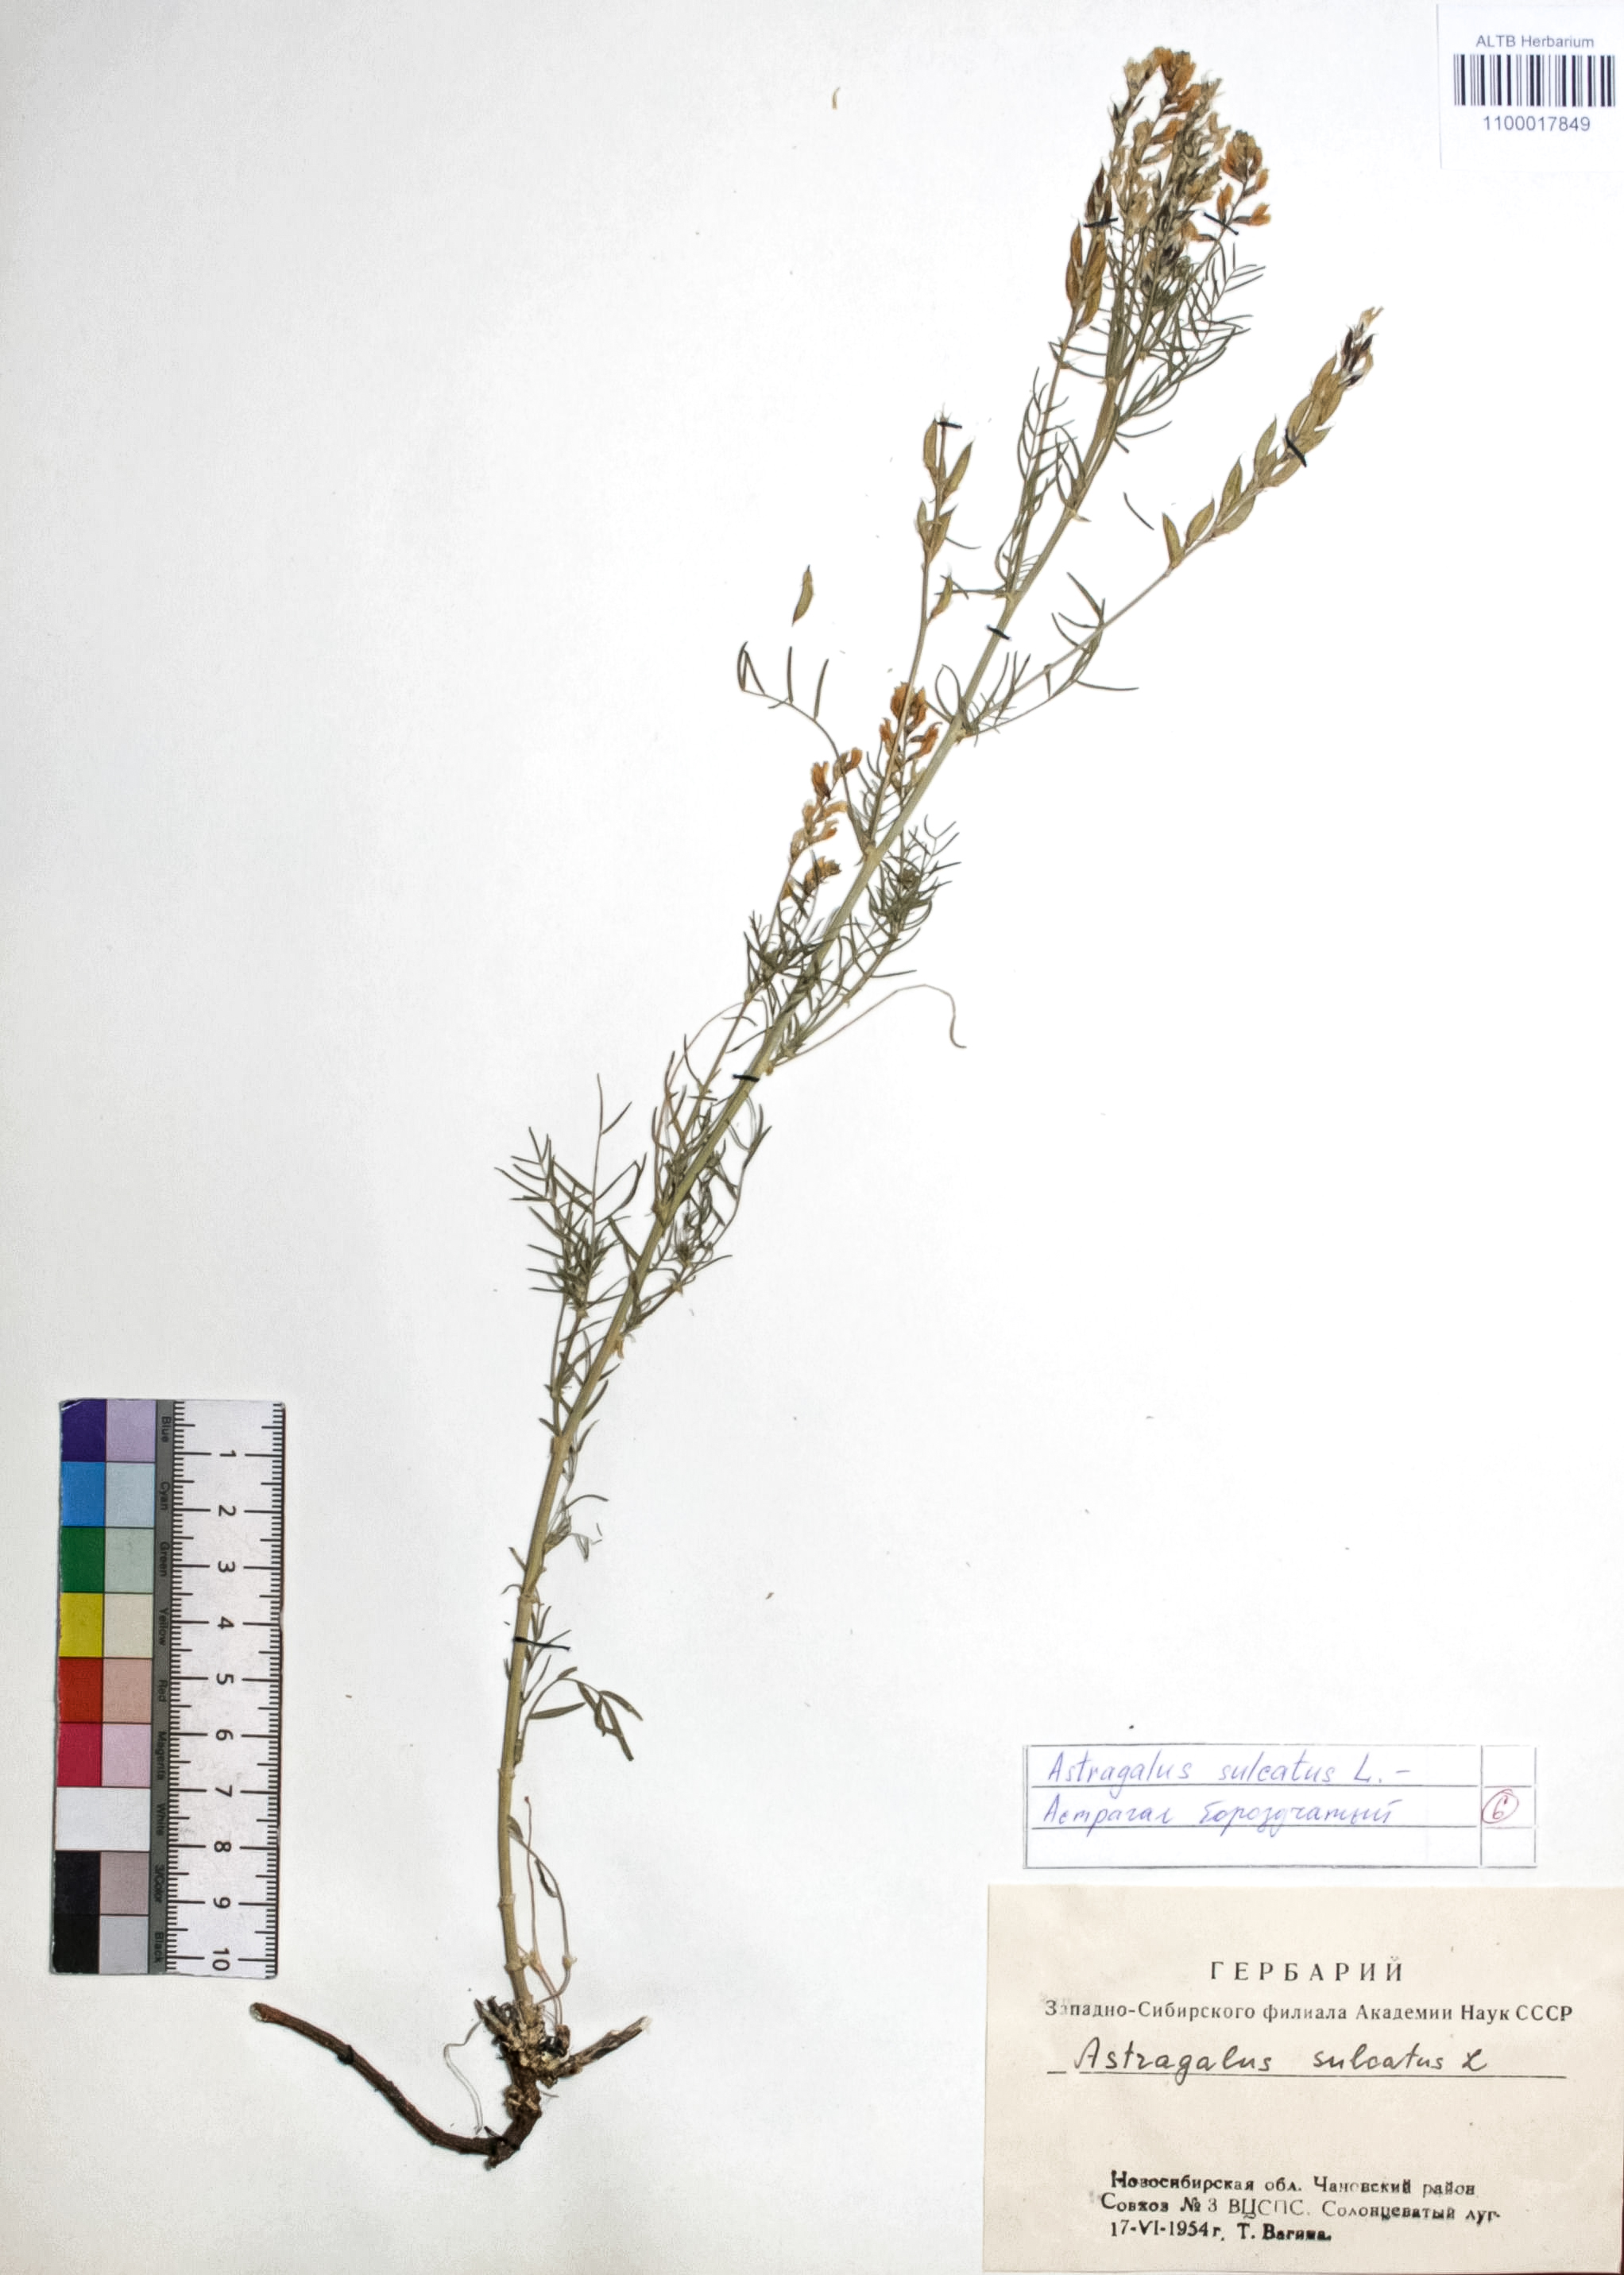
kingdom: Plantae
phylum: Tracheophyta
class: Magnoliopsida
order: Fabales
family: Fabaceae
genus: Astragalus
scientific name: Astragalus sulcatus
